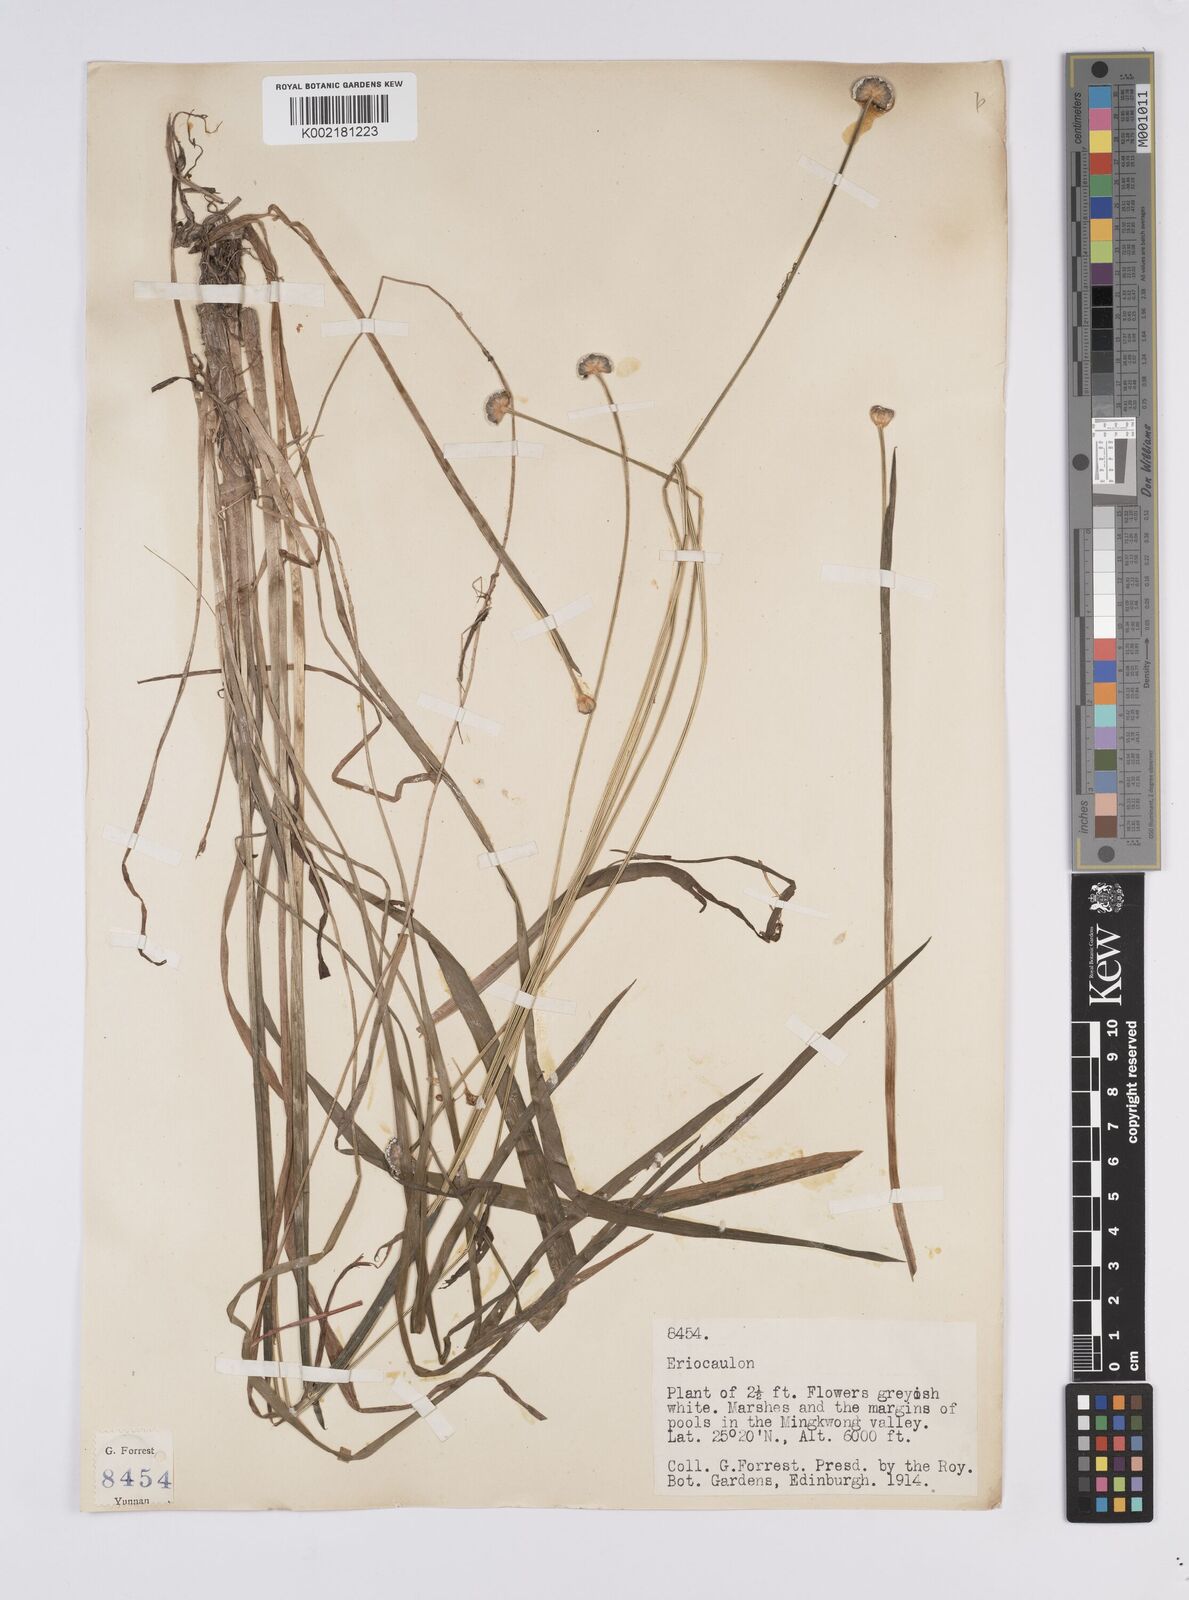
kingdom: Plantae
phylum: Tracheophyta
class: Liliopsida
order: Poales
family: Eriocaulaceae
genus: Eriocaulon
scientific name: Eriocaulon
